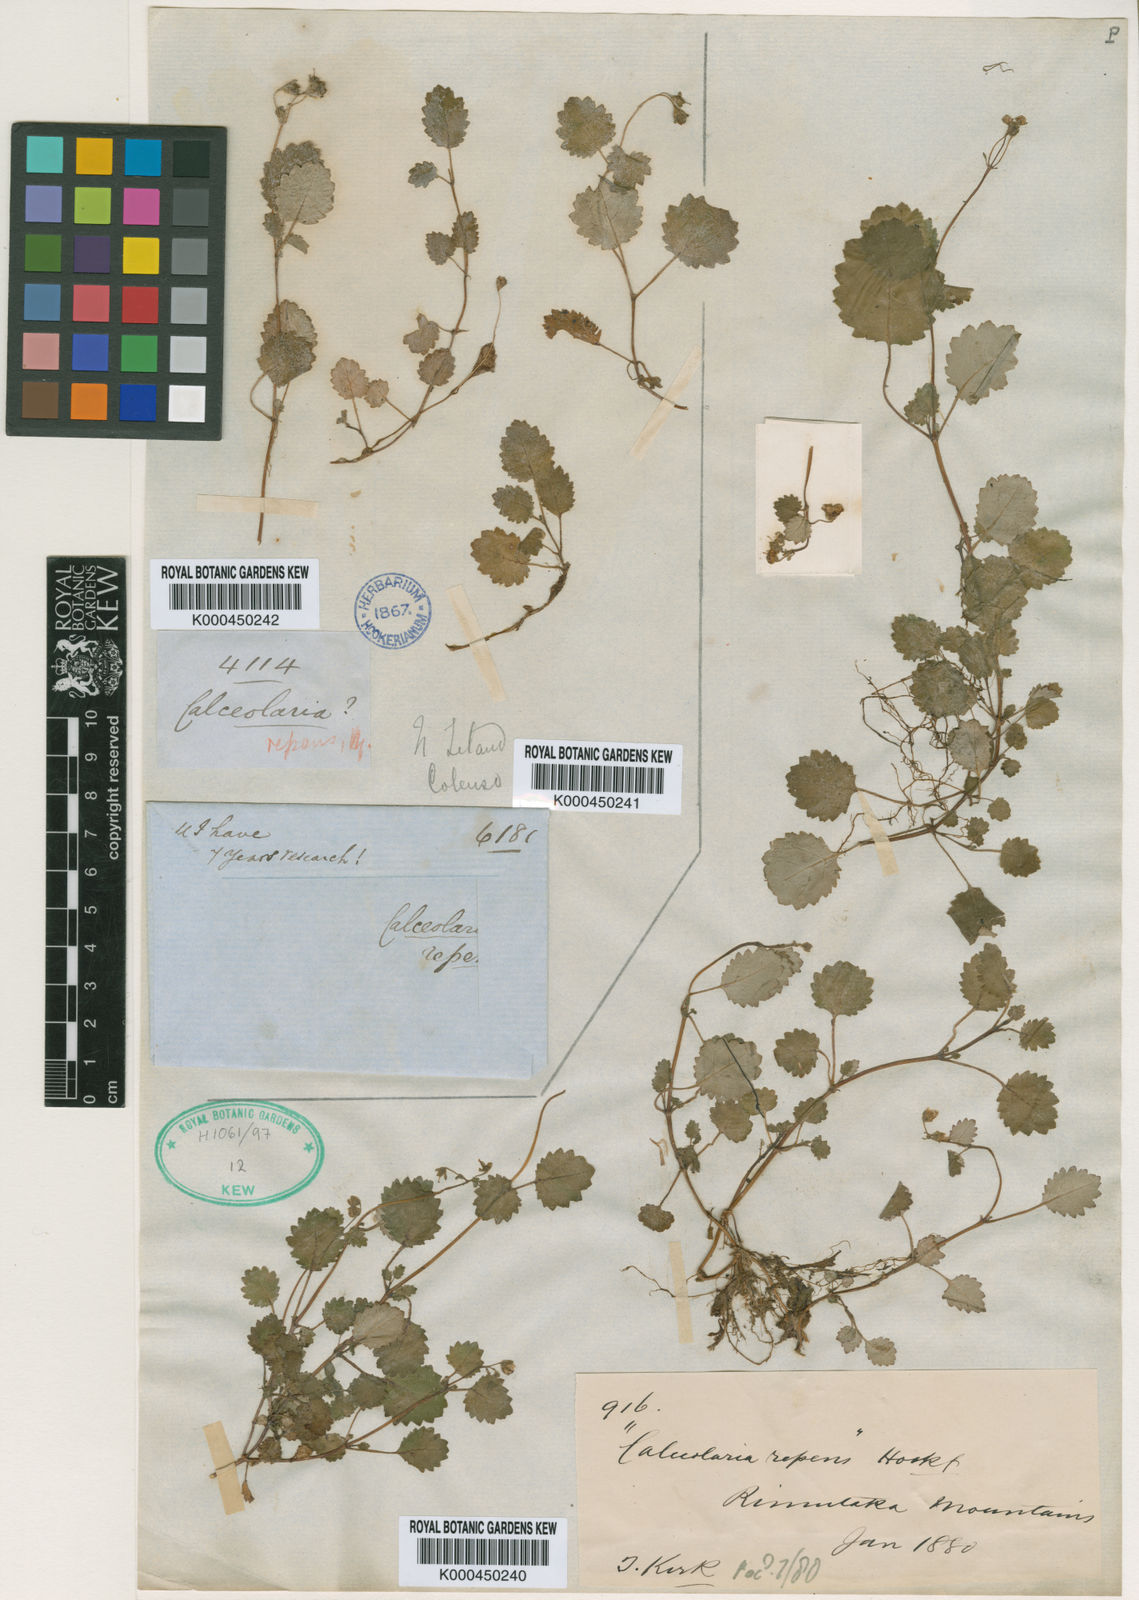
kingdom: Plantae
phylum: Tracheophyta
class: Magnoliopsida
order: Lamiales
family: Calceolariaceae
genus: Jovellana
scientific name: Jovellana repens
